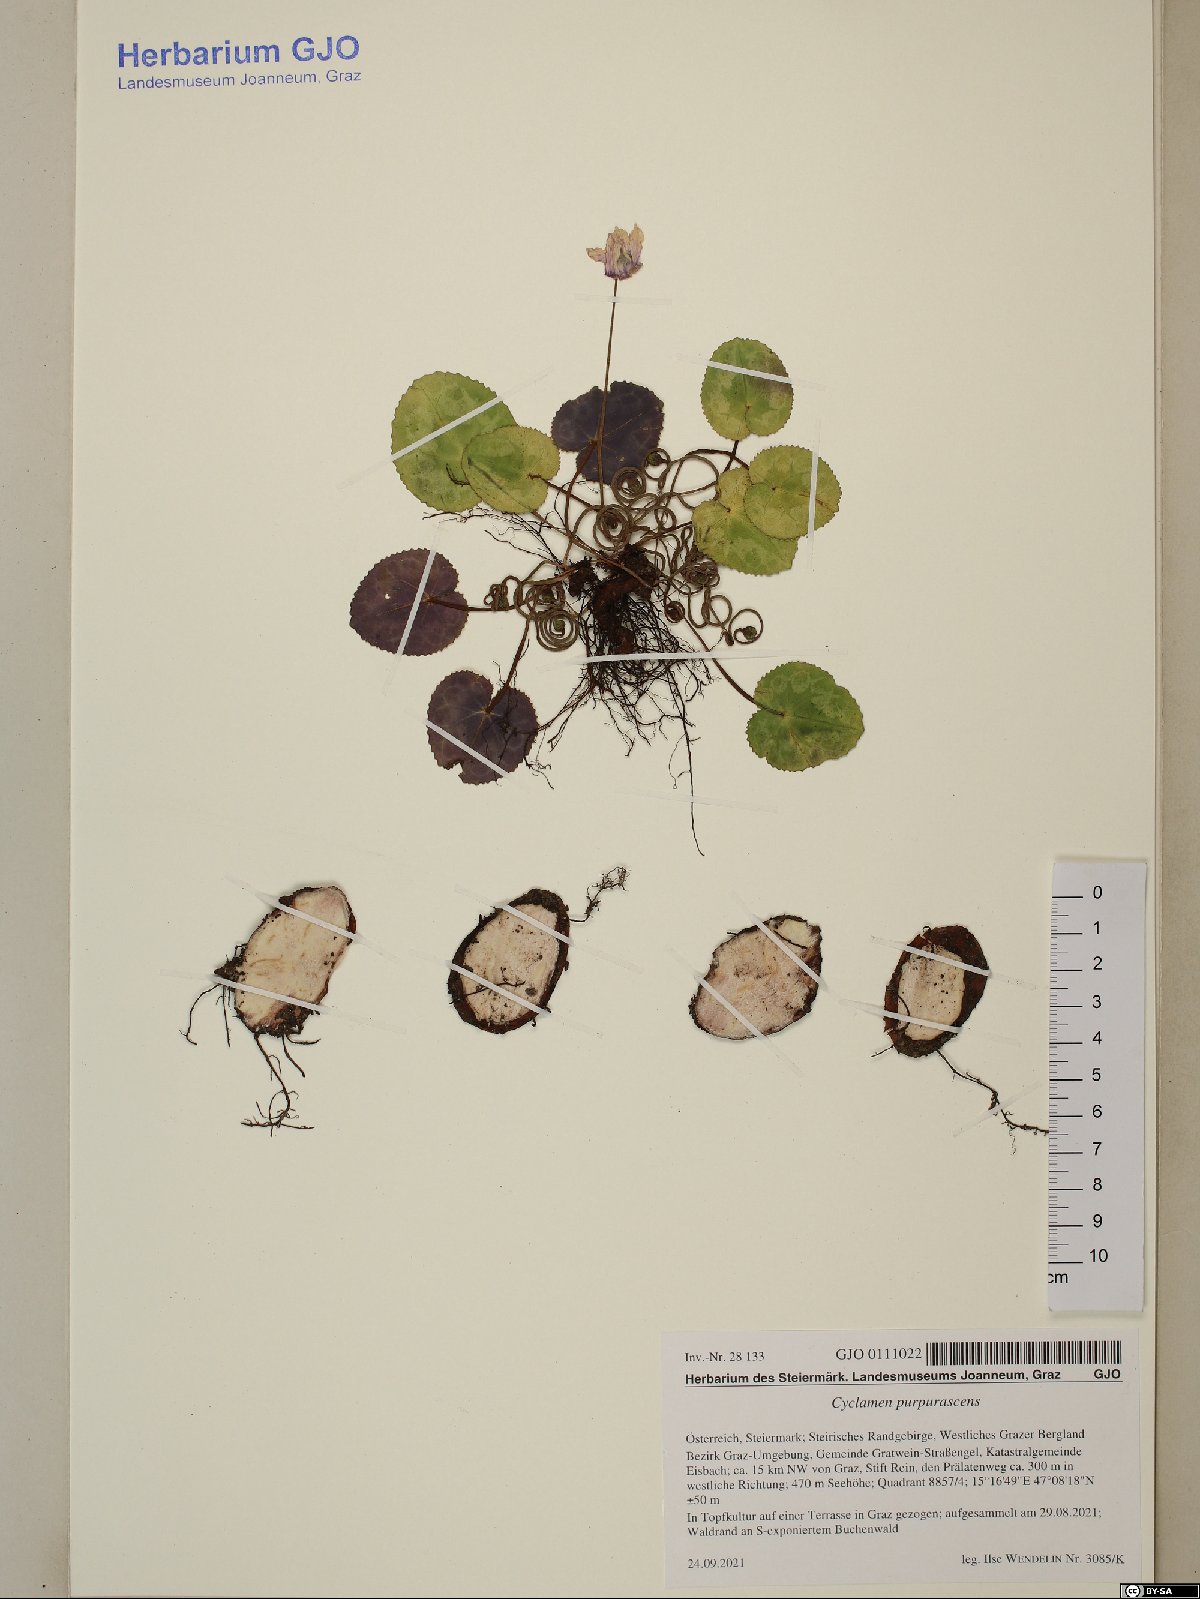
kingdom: Plantae
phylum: Tracheophyta
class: Magnoliopsida
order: Ericales
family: Primulaceae
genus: Cyclamen
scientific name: Cyclamen purpurascens
